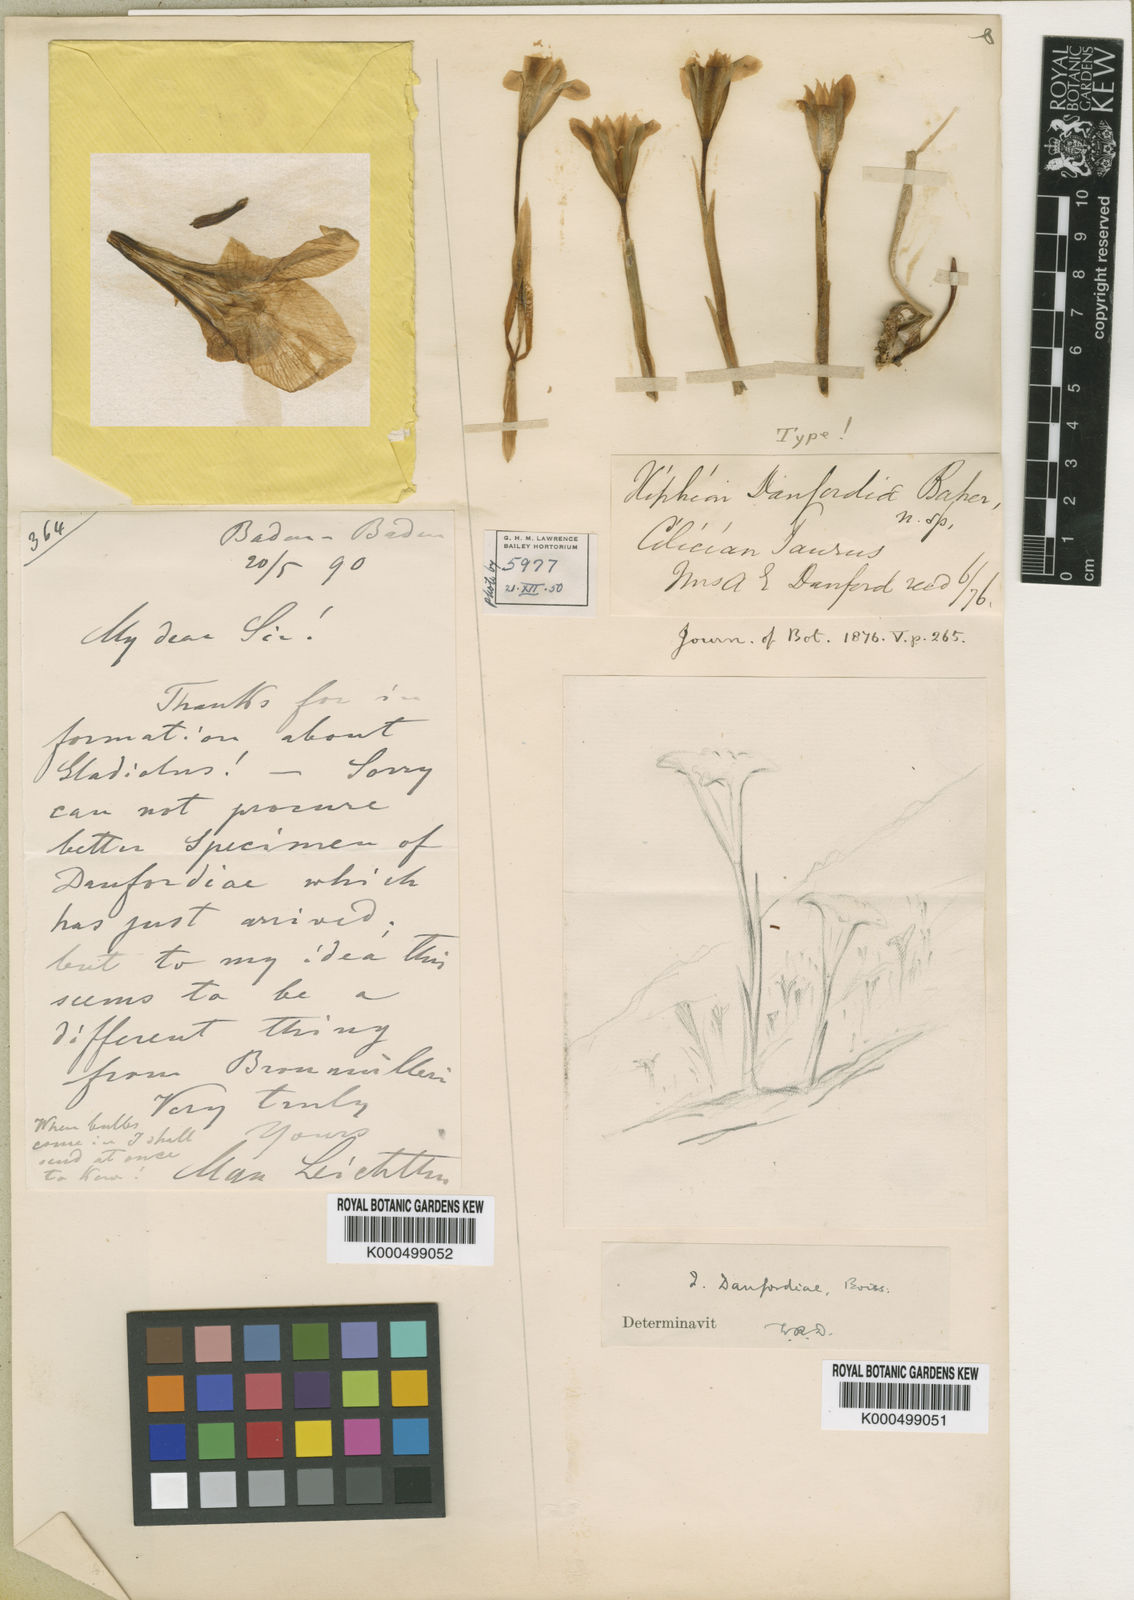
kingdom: Plantae
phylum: Tracheophyta
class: Liliopsida
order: Asparagales
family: Iridaceae
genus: Iris
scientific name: Iris danfordiae
